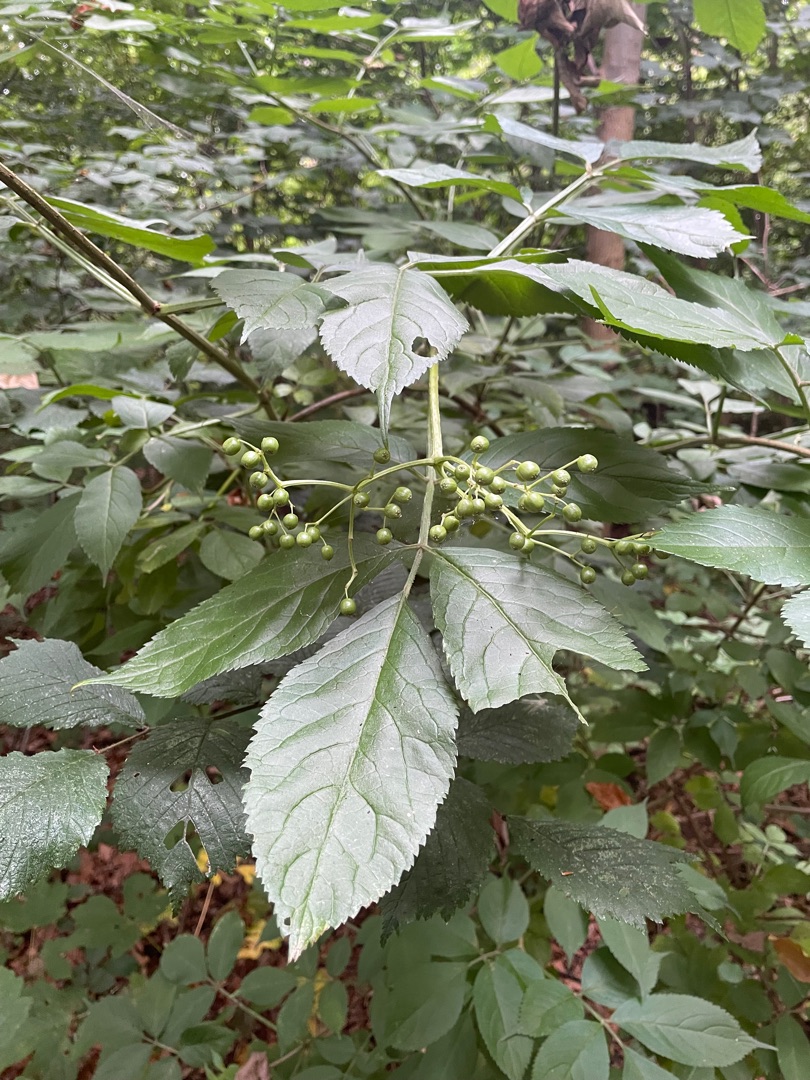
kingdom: Plantae
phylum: Tracheophyta
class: Magnoliopsida
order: Dipsacales
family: Viburnaceae
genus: Sambucus
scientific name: Sambucus nigra
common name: Almindelig hyld
